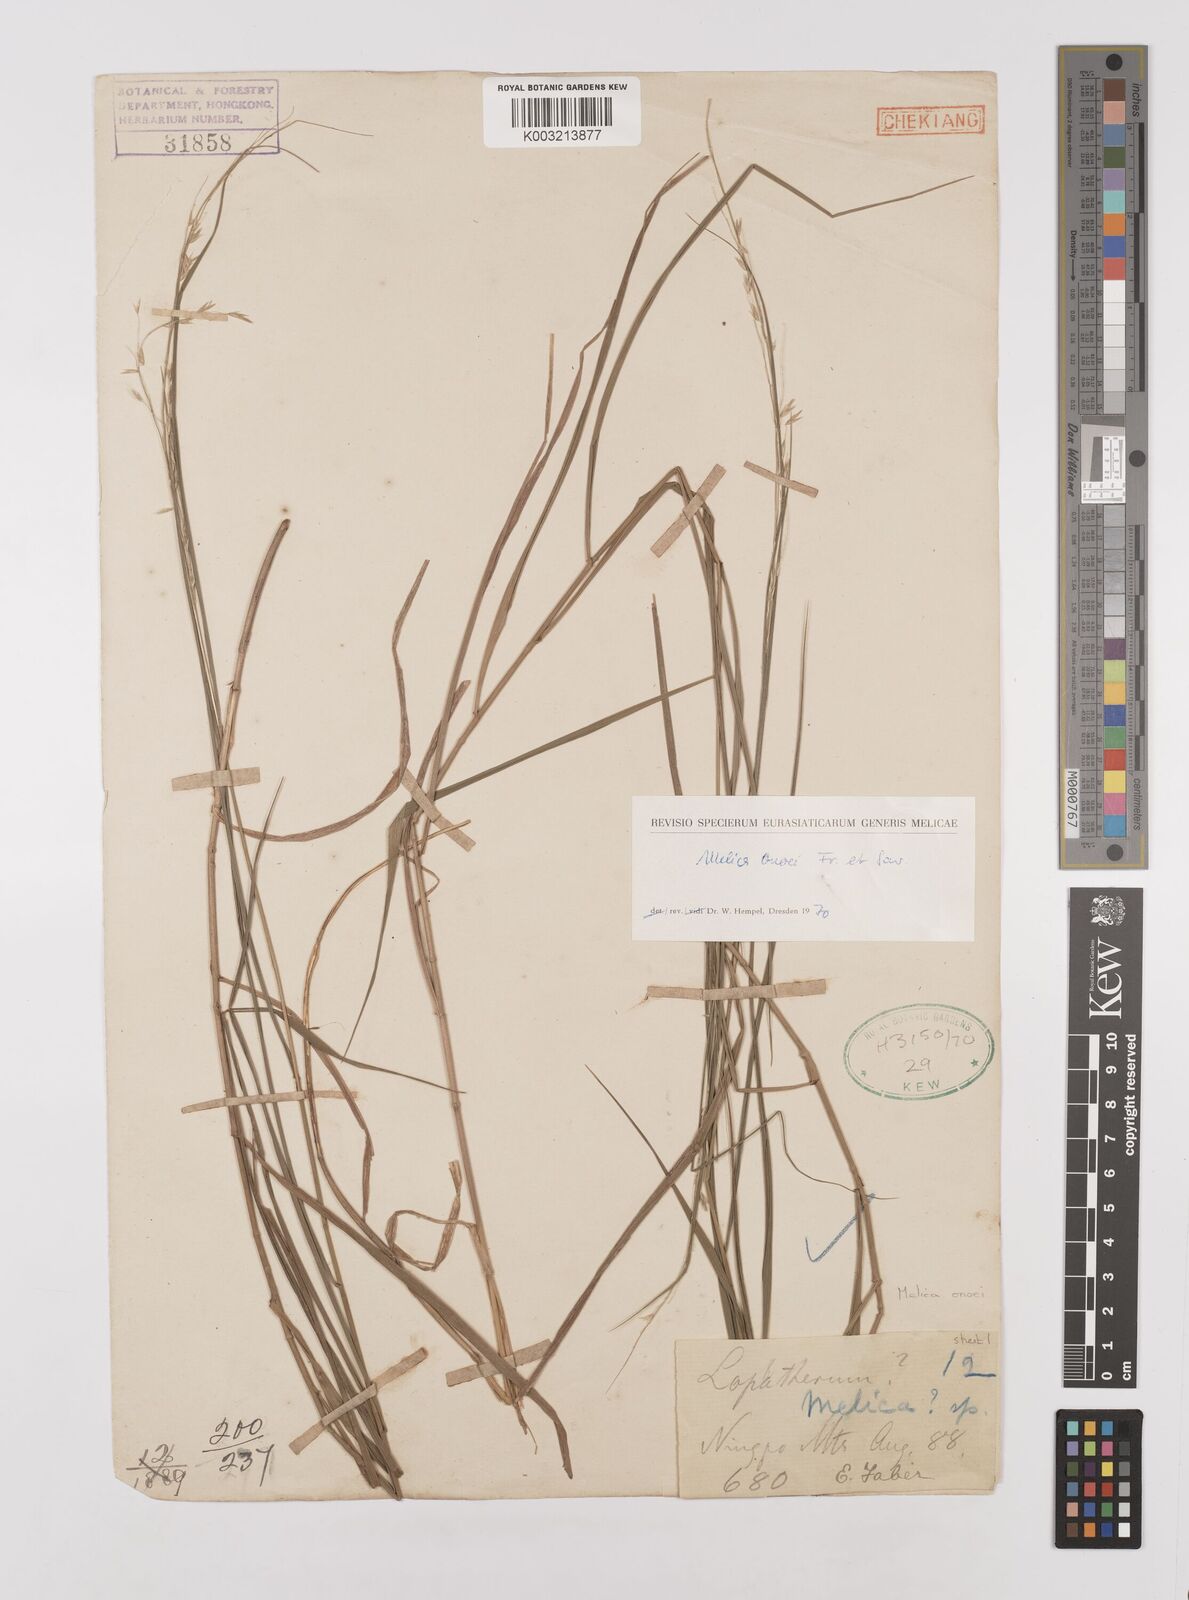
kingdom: Plantae
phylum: Tracheophyta
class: Liliopsida
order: Poales
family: Poaceae
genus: Melica
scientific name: Melica onoei
